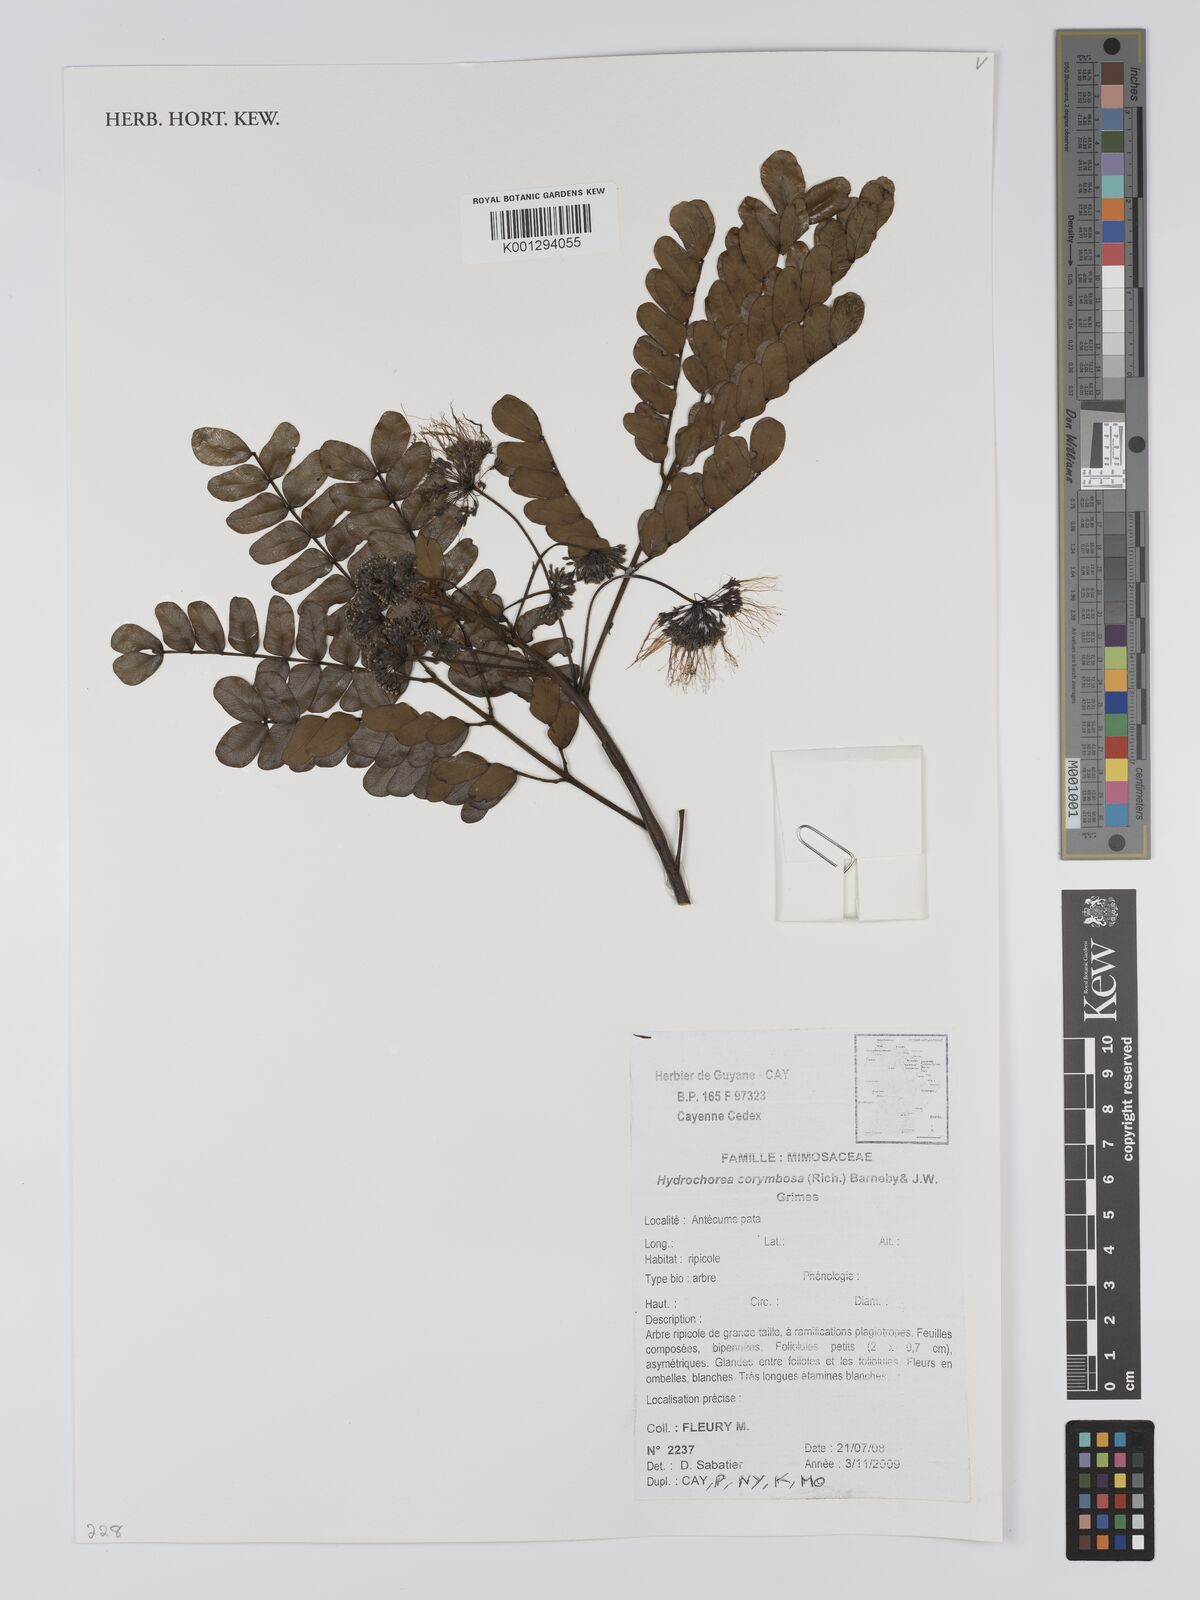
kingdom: Plantae
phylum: Tracheophyta
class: Magnoliopsida
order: Fabales
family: Fabaceae
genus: Hydrochorea
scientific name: Hydrochorea corymbosa
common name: Swamp manariballi
